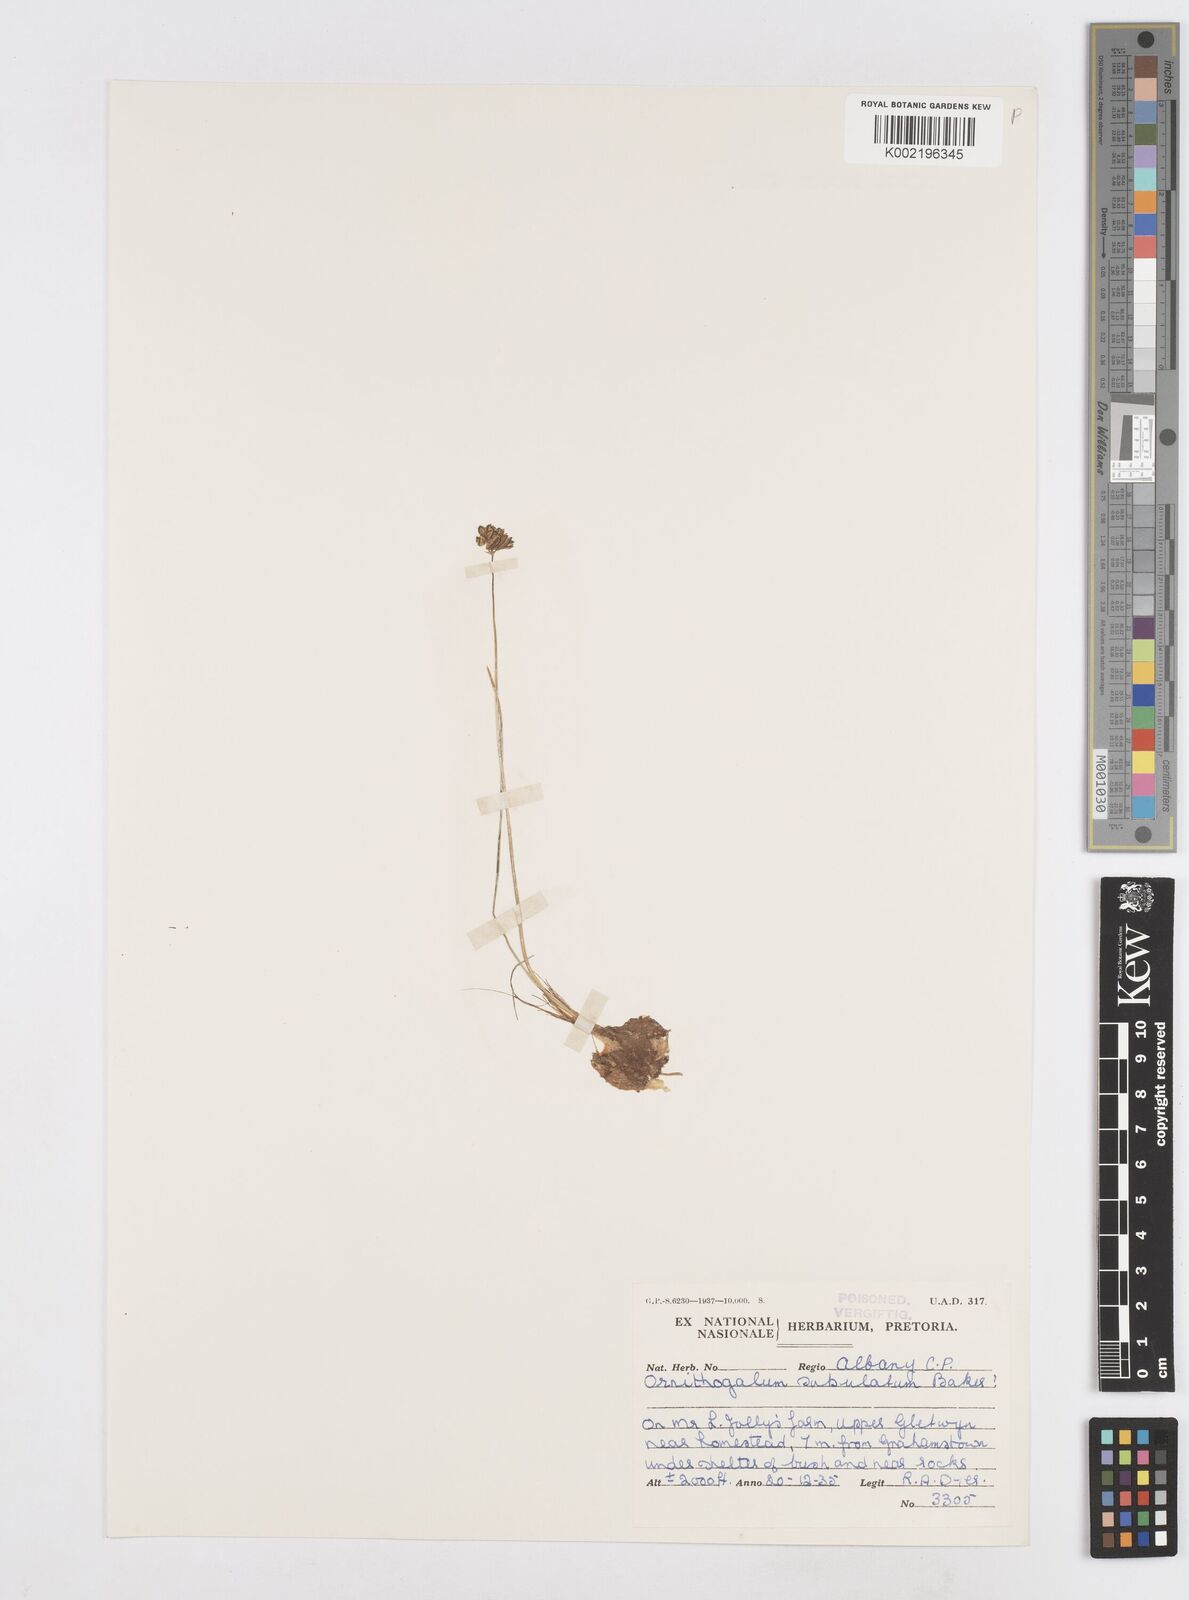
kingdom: Plantae
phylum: Tracheophyta
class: Liliopsida
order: Asparagales
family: Asparagaceae
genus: Ornithogalum
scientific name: Ornithogalum juncifolium
